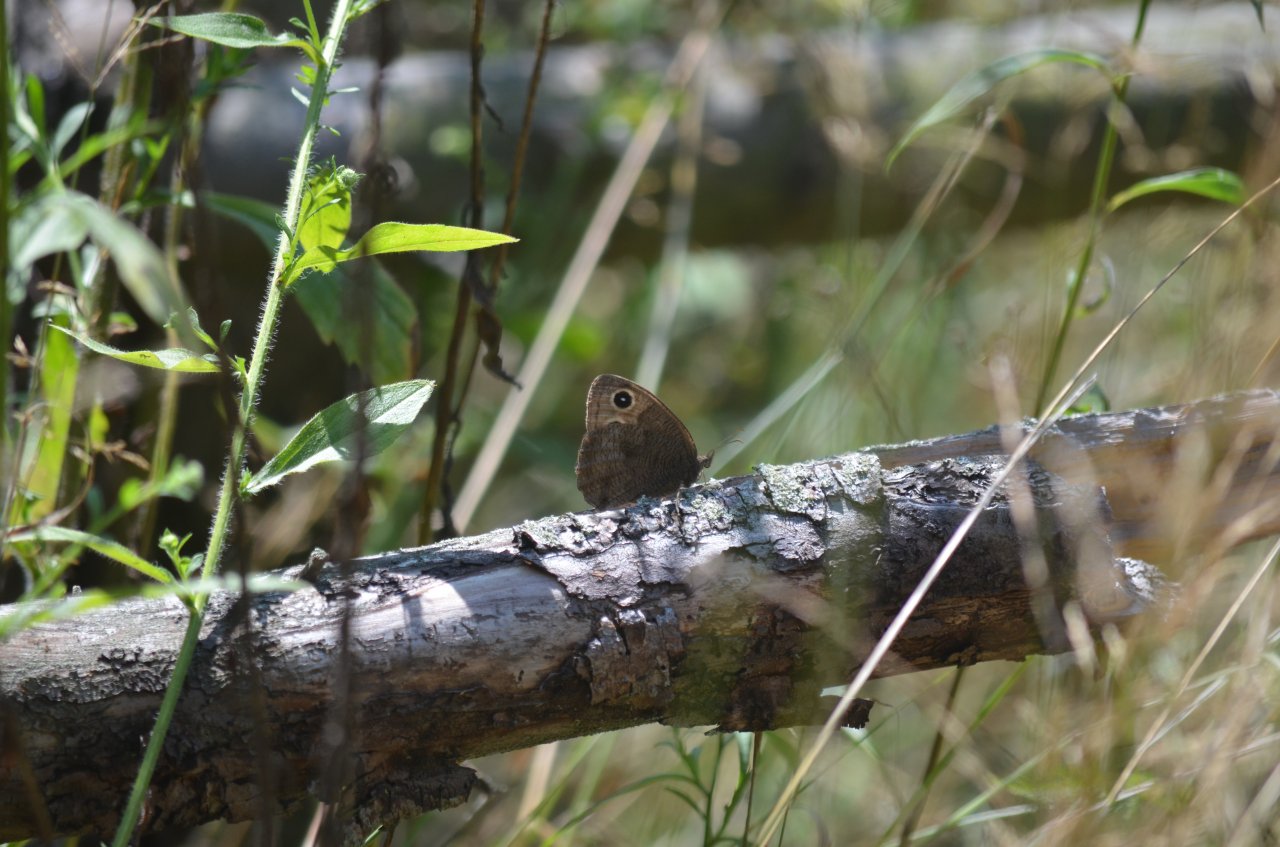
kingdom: Animalia
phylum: Arthropoda
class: Insecta
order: Lepidoptera
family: Nymphalidae
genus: Cercyonis
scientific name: Cercyonis pegala
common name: Common Wood-Nymph
